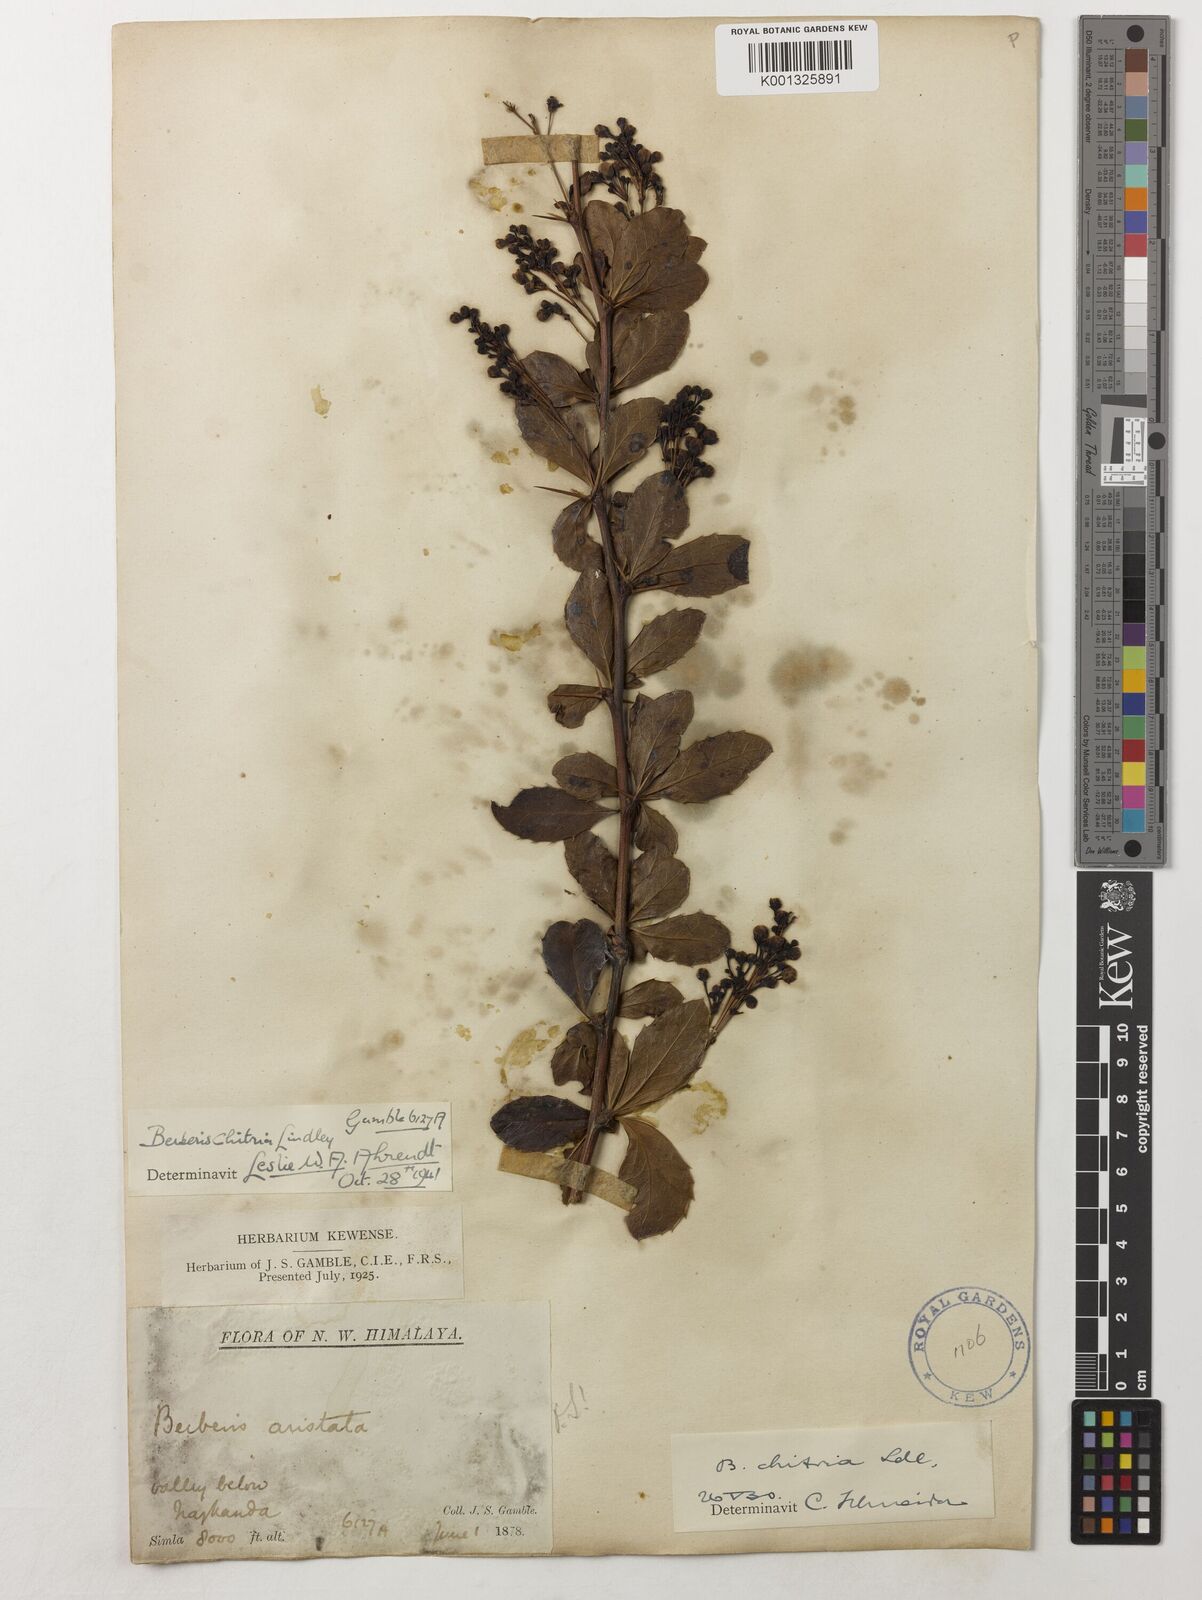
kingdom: Plantae
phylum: Tracheophyta
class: Magnoliopsida
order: Ranunculales
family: Berberidaceae
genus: Berberis
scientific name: Berberis
